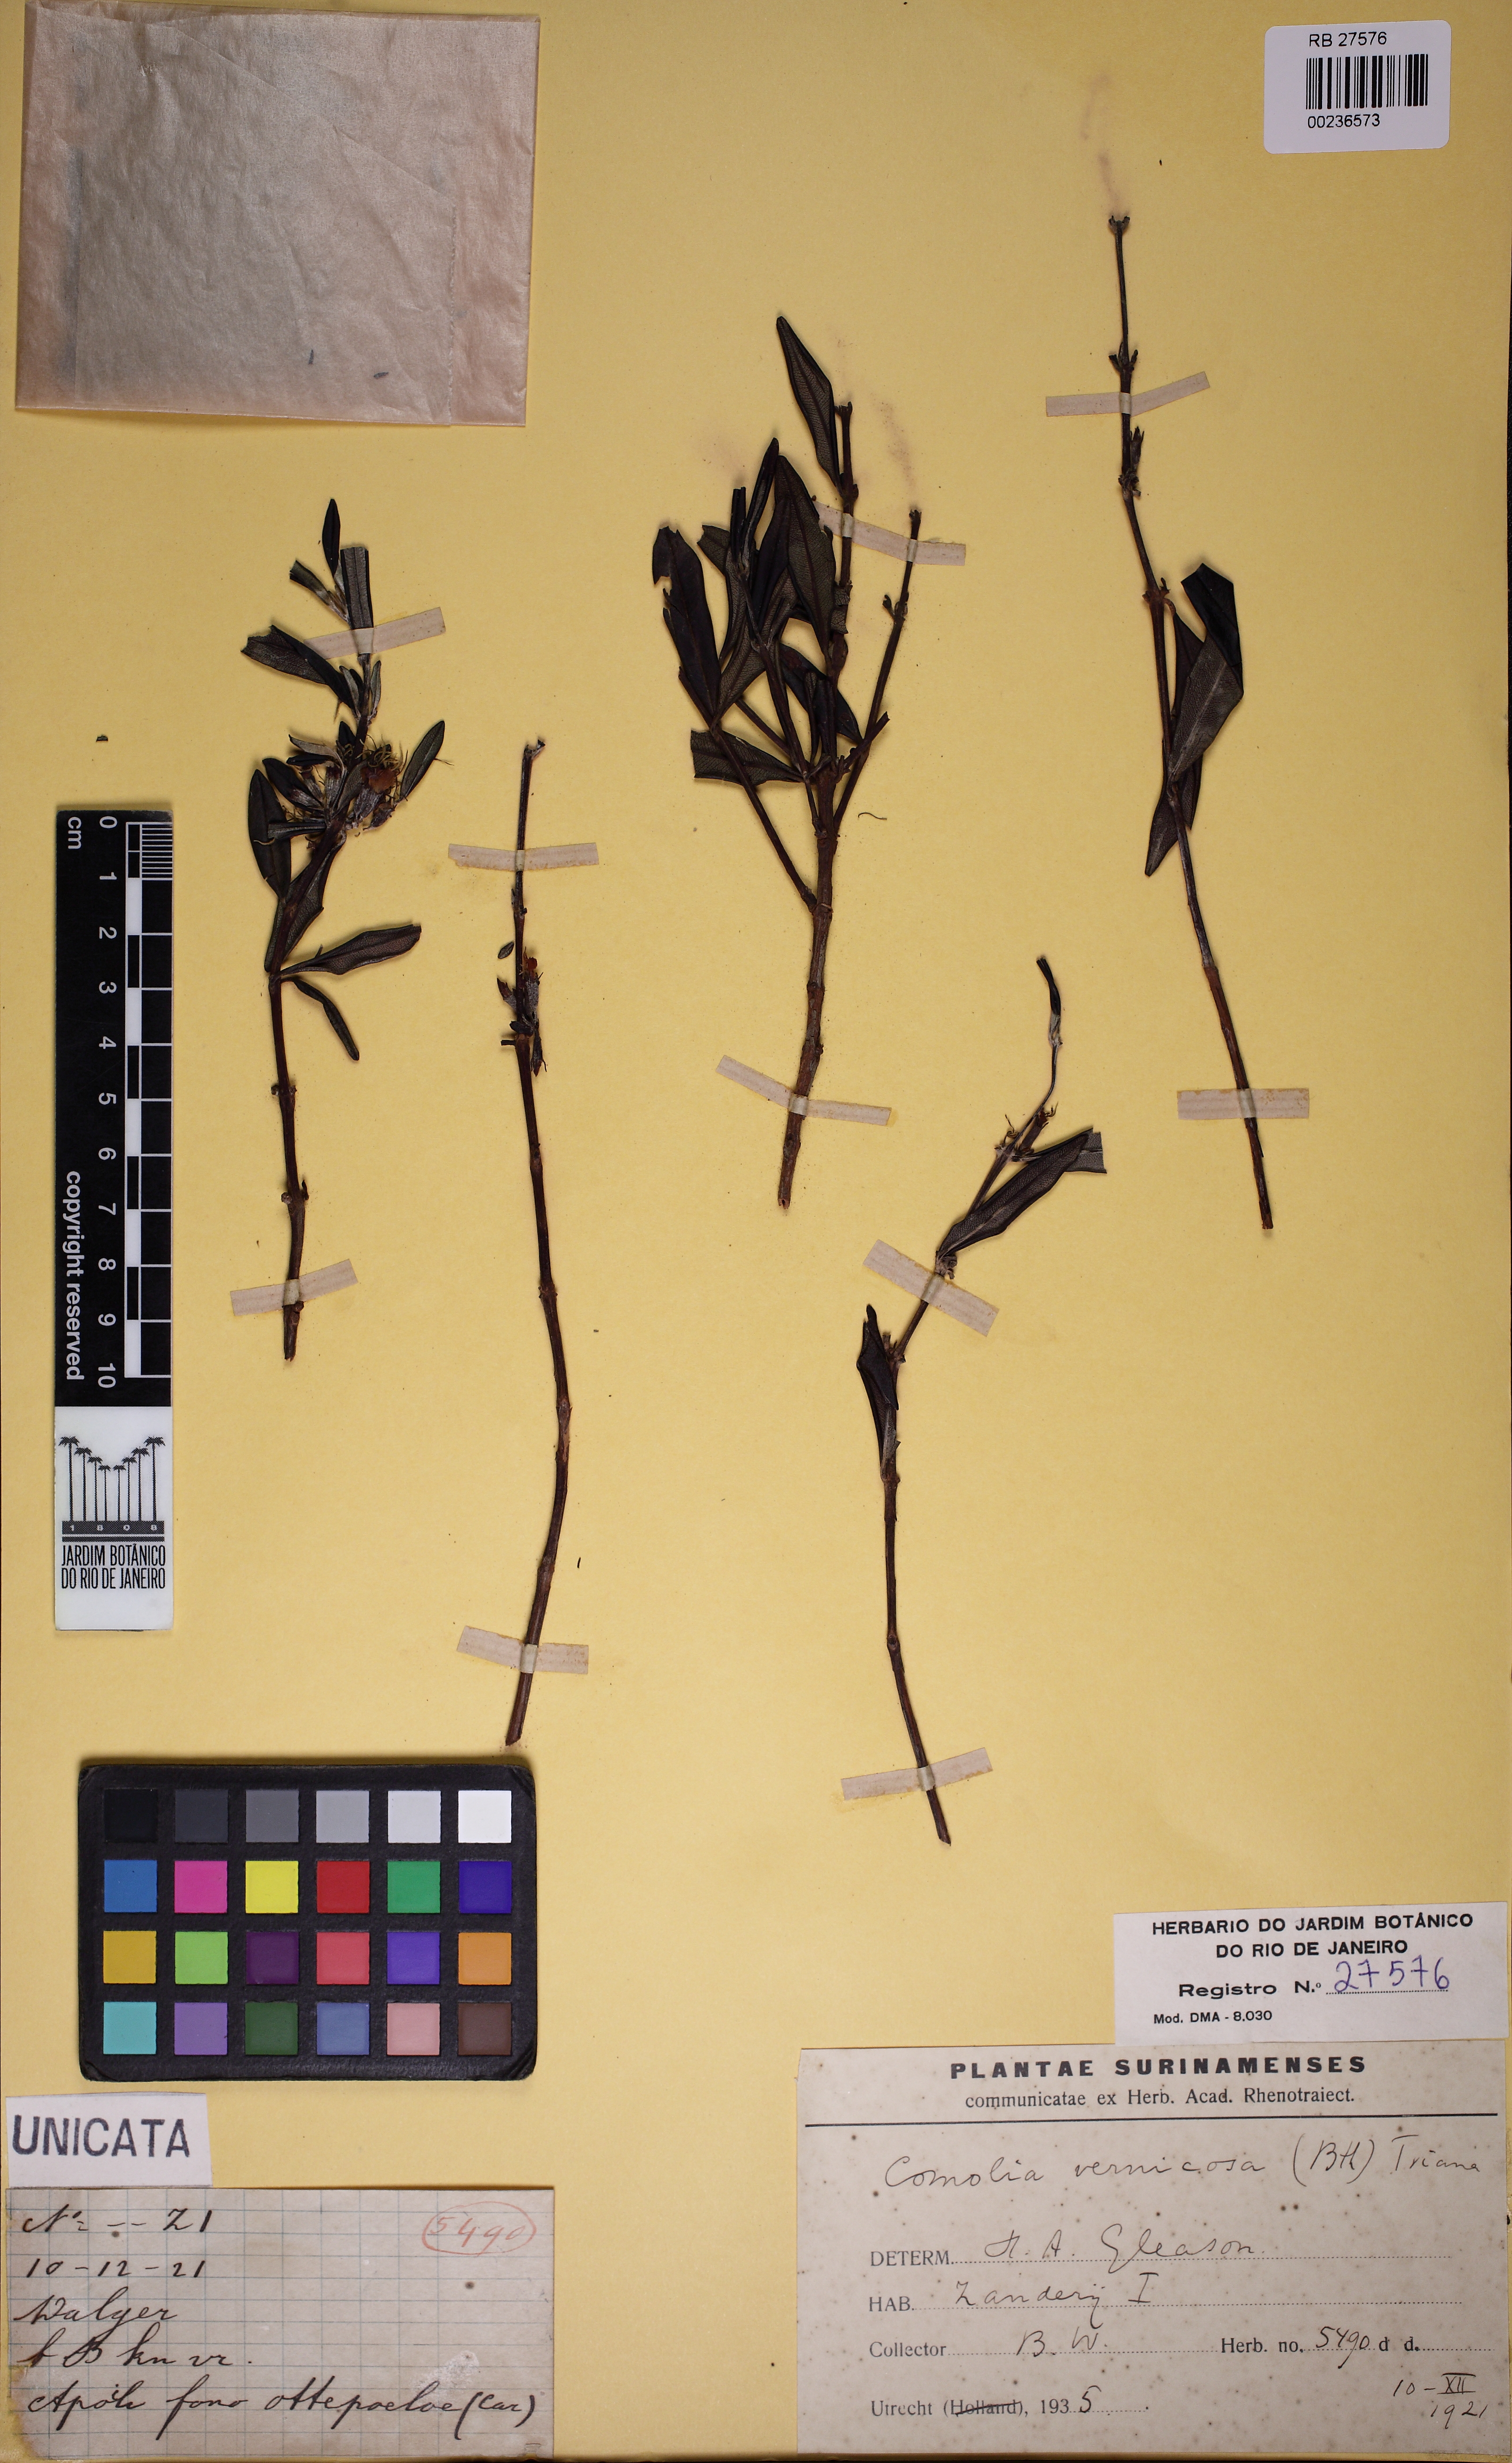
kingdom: Plantae
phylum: Tracheophyta
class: Magnoliopsida
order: Myrtales
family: Melastomataceae
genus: Leiostegia
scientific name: Leiostegia vernicosa
